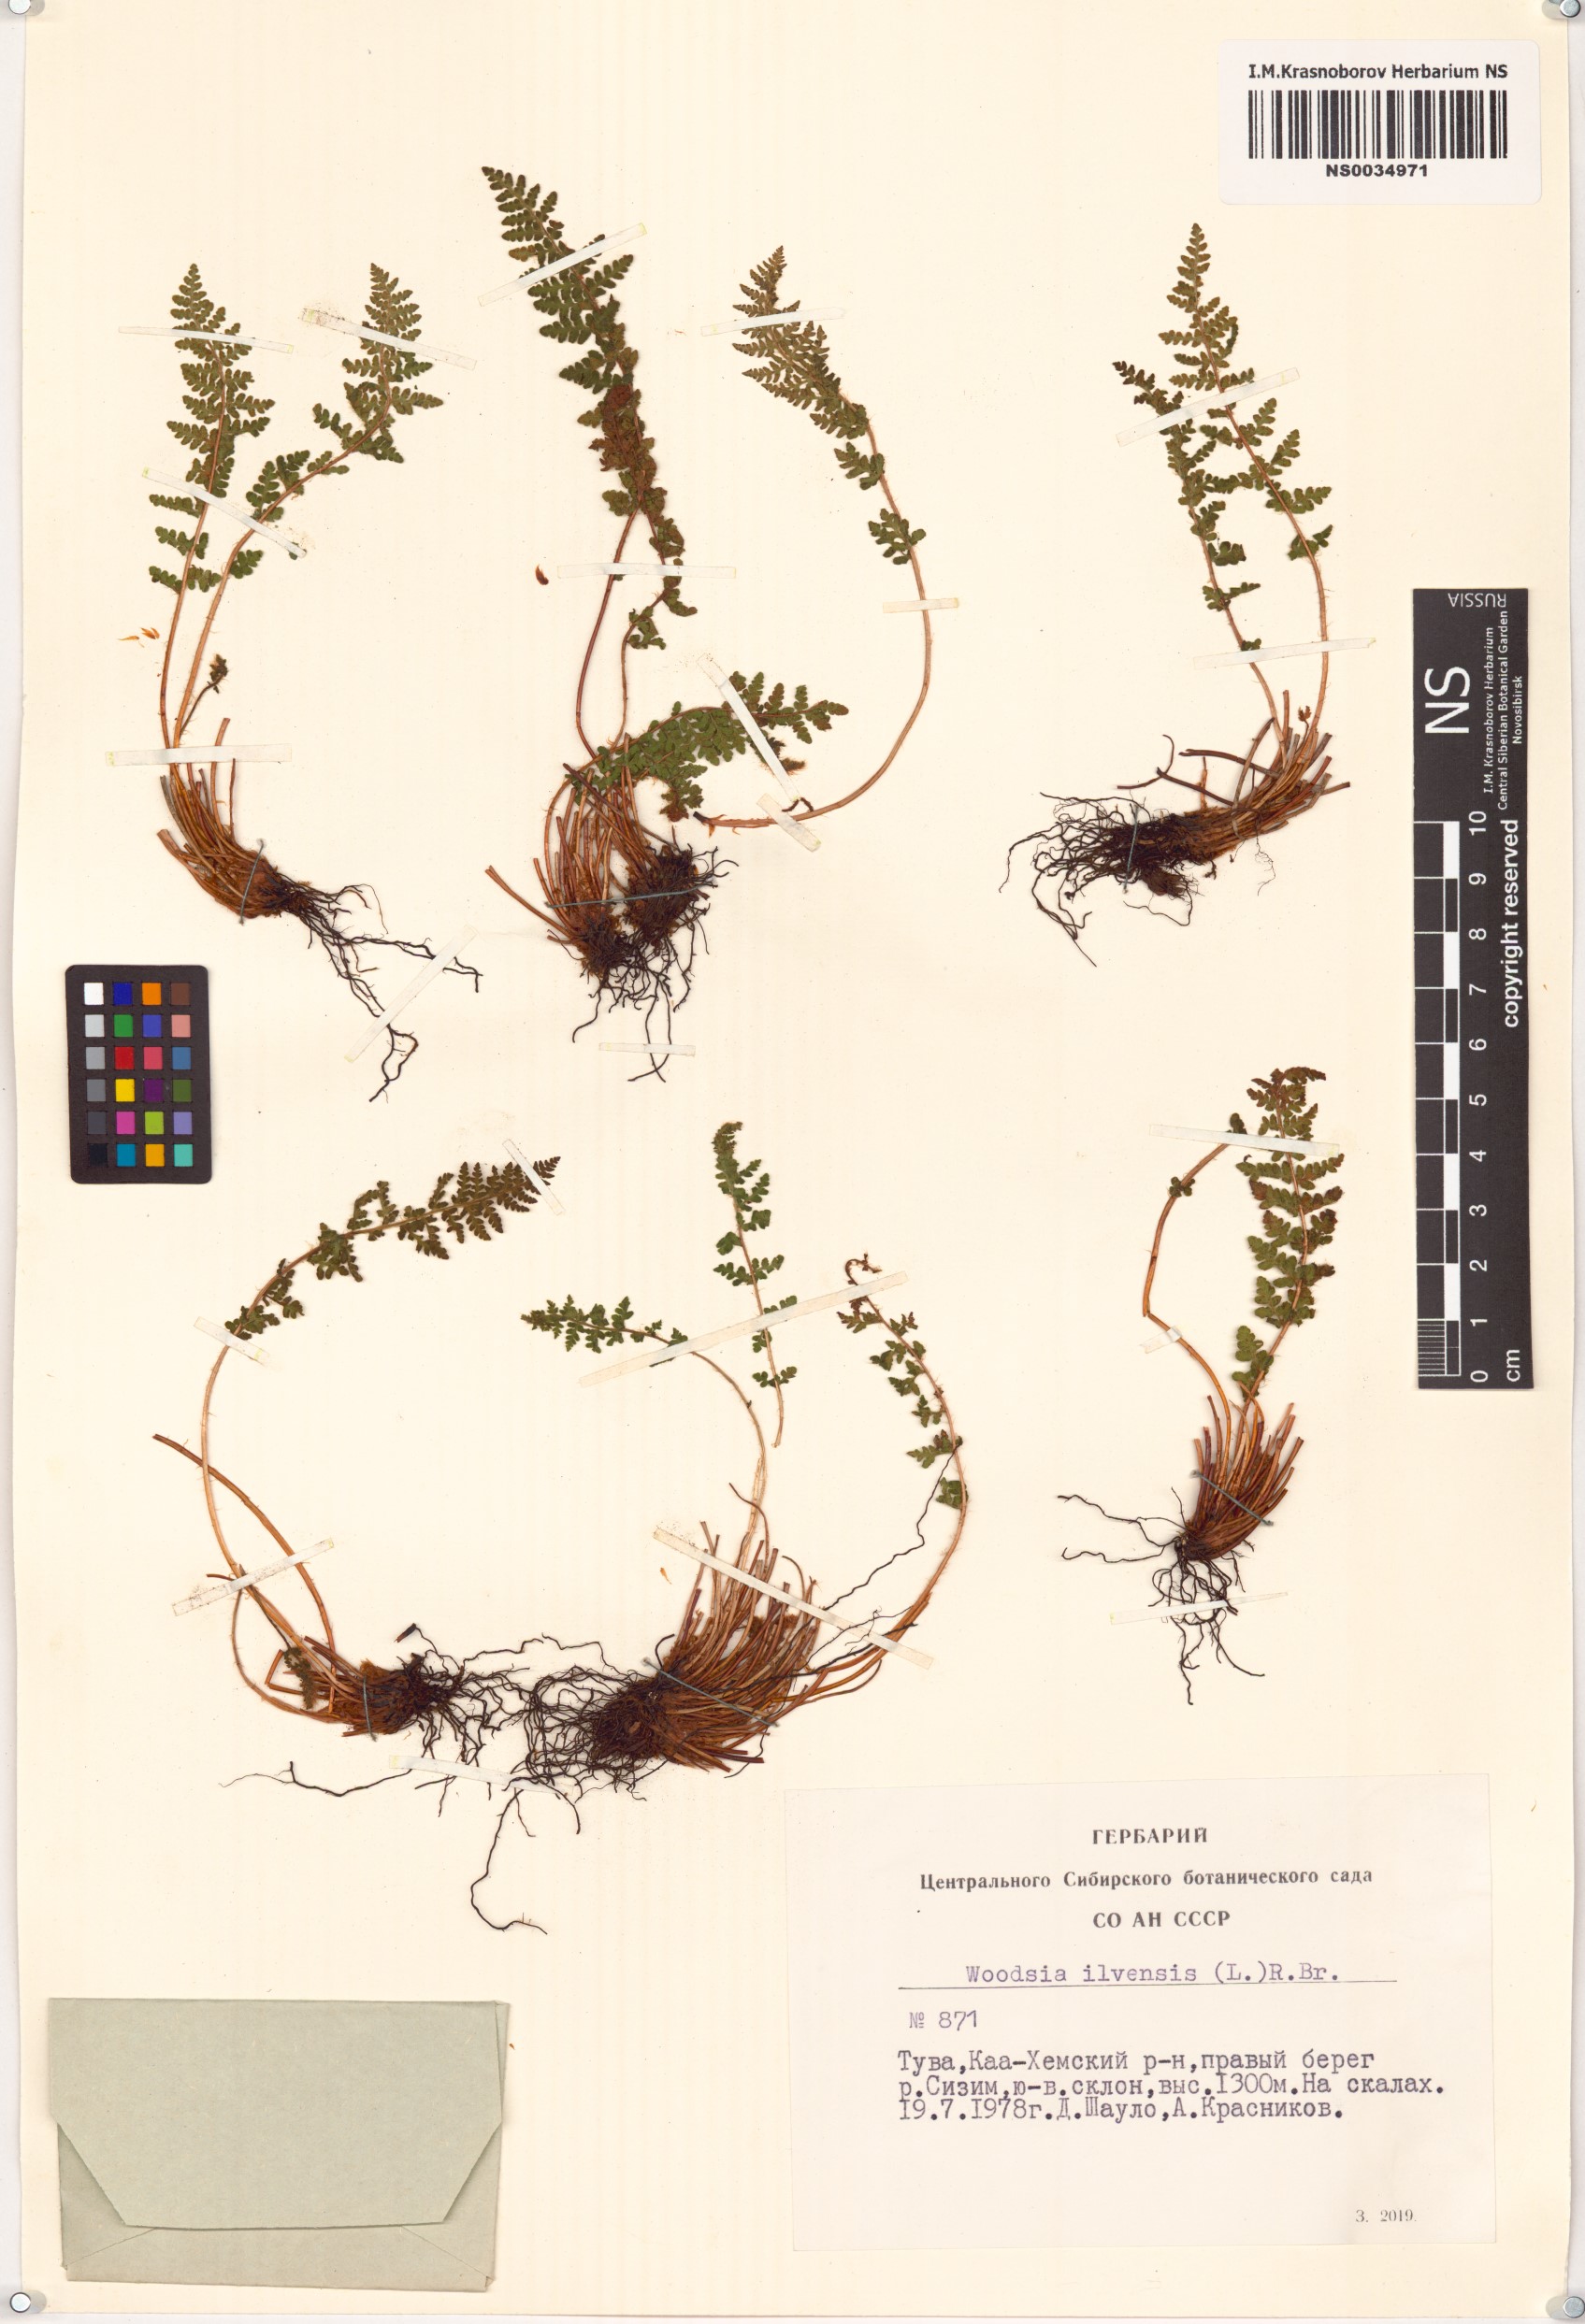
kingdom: Plantae
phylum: Tracheophyta
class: Polypodiopsida
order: Polypodiales
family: Woodsiaceae
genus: Woodsia
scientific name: Woodsia ilvensis
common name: Fragrant woodsia
